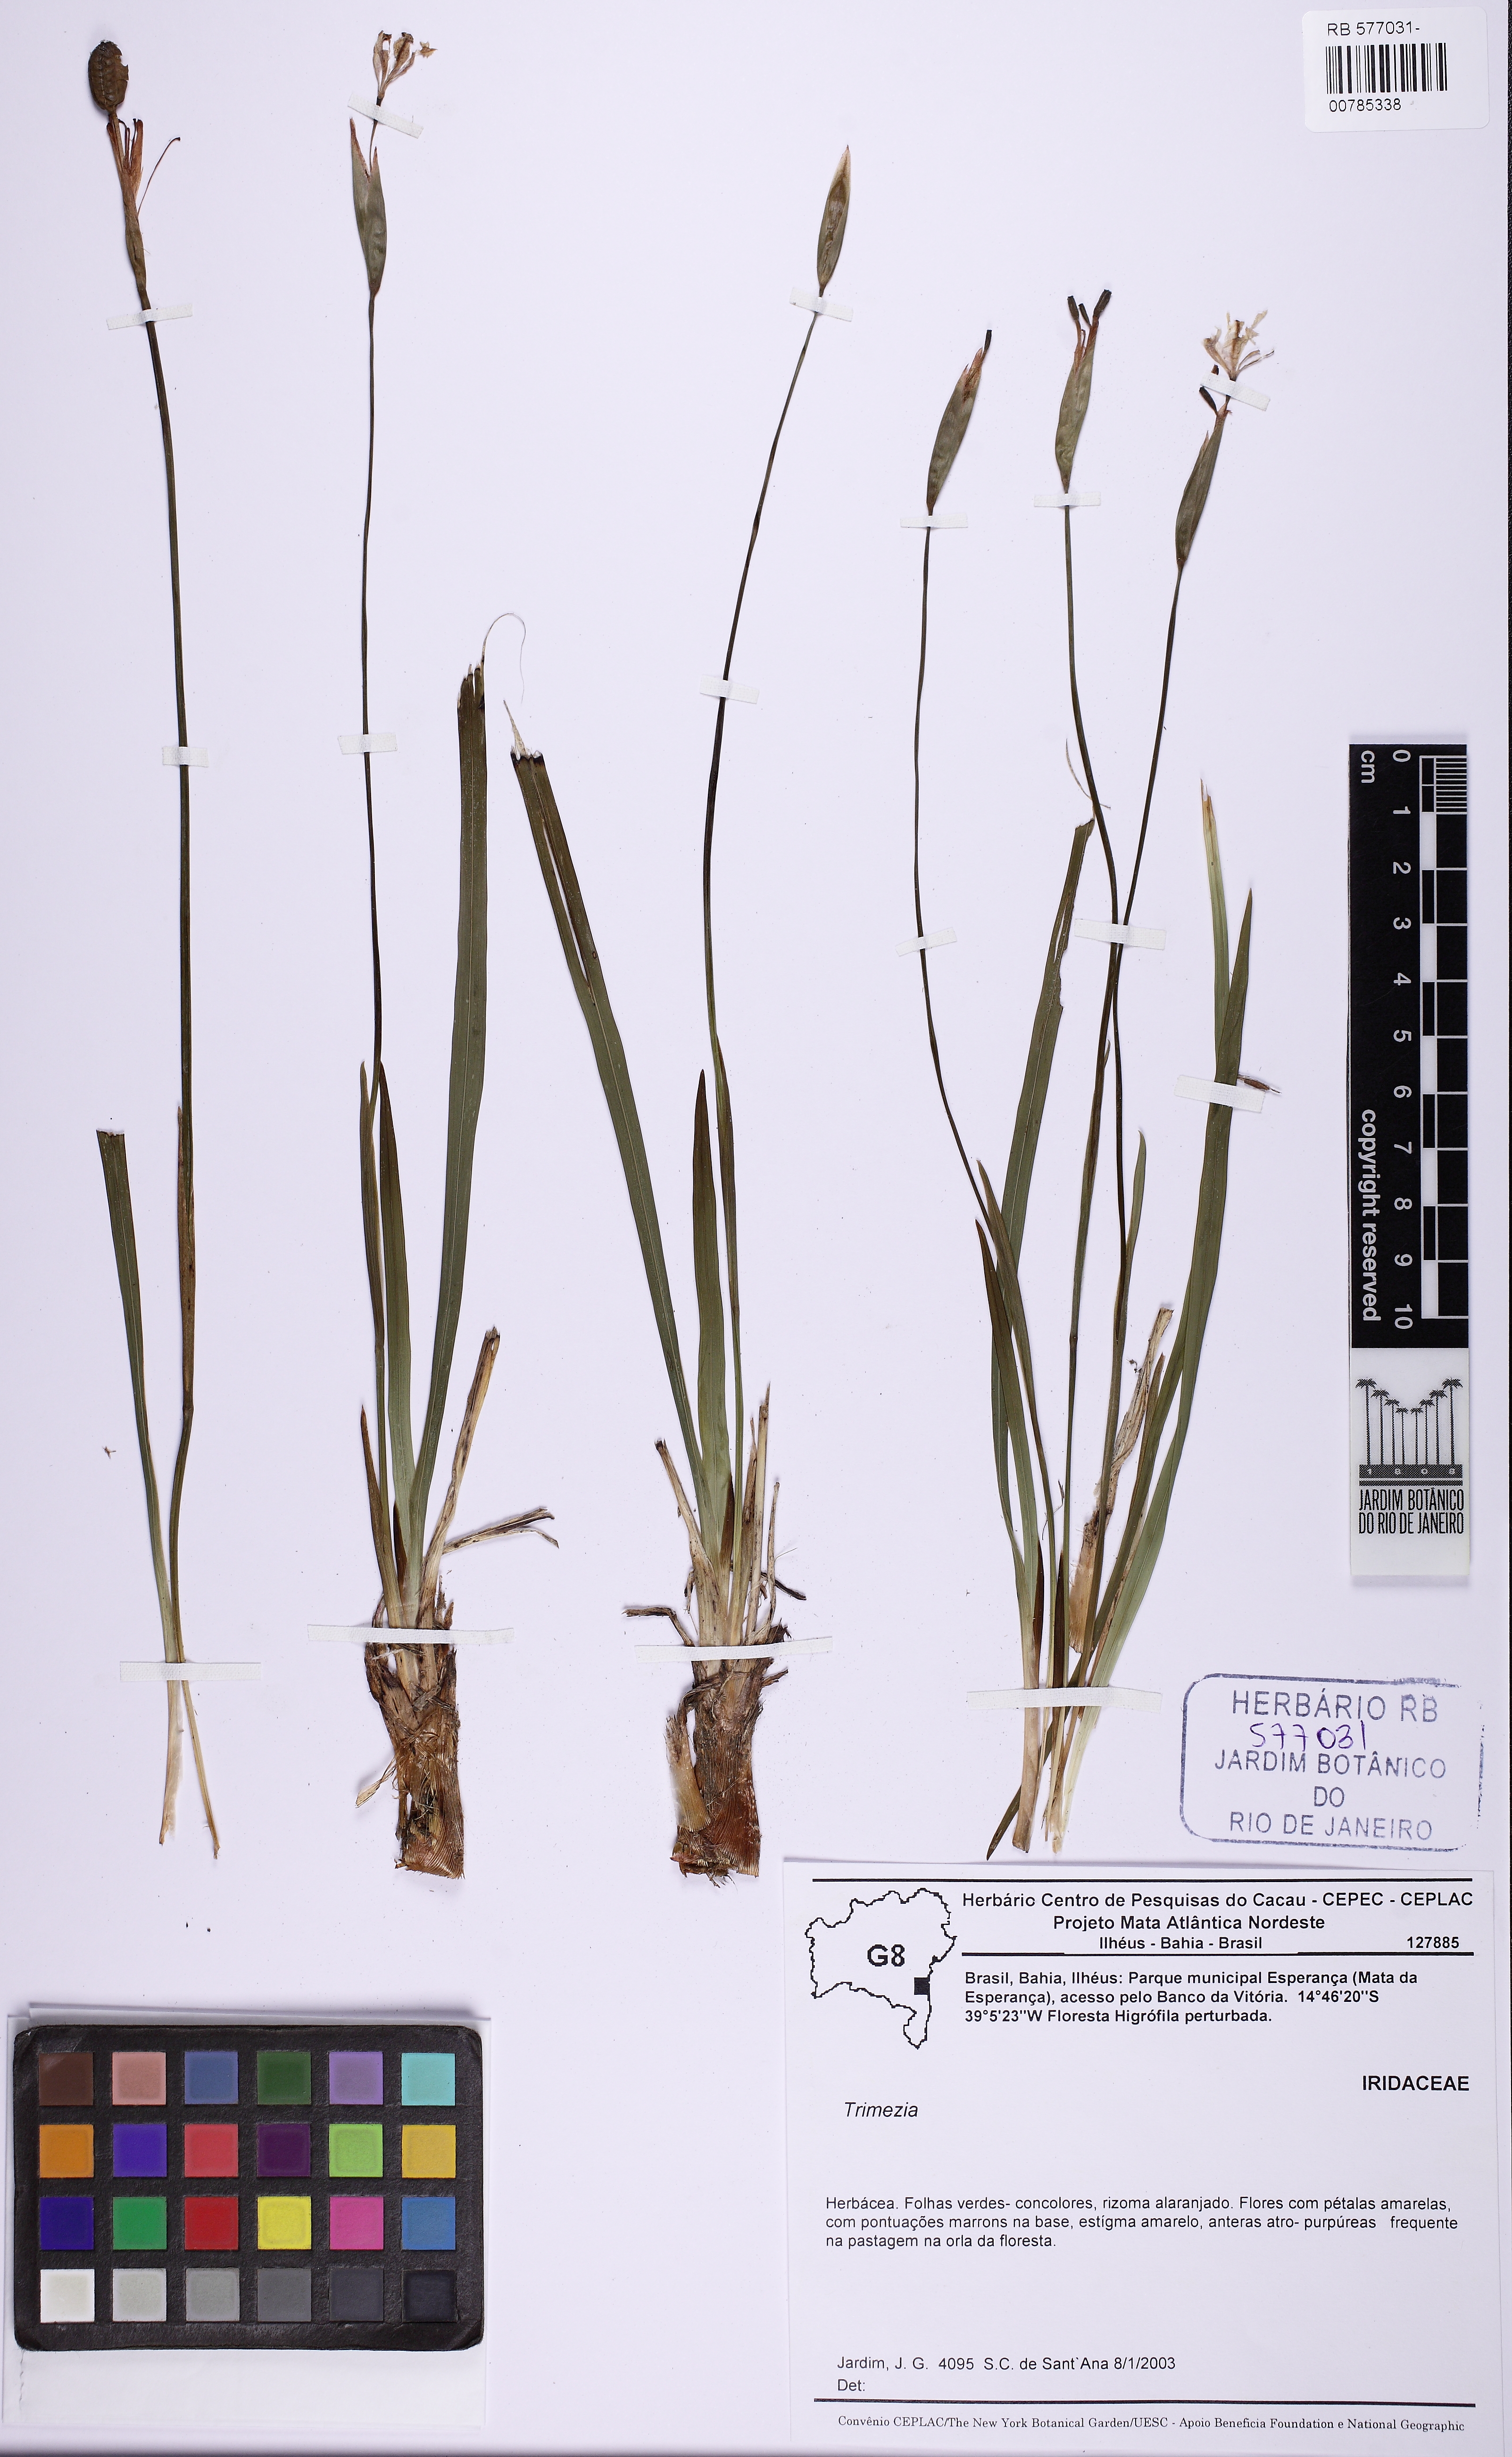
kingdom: Plantae
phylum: Tracheophyta
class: Liliopsida
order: Asparagales
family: Iridaceae
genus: Trimezia
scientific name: Trimezia caulosa
